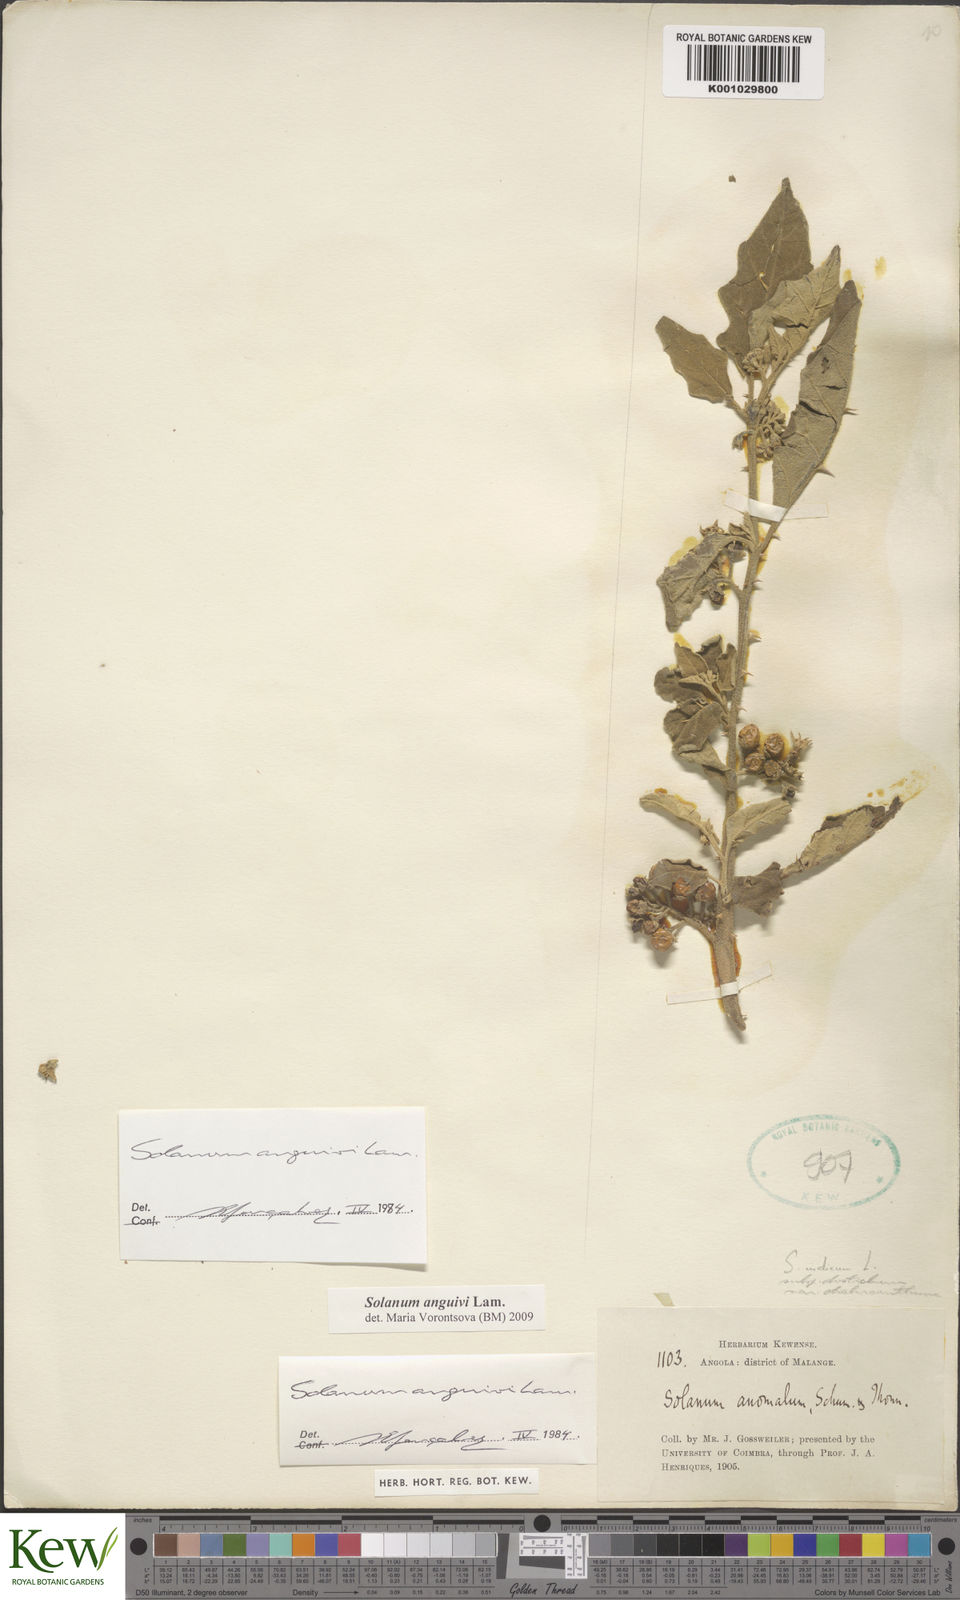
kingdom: Plantae
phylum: Tracheophyta
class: Magnoliopsida
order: Solanales
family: Solanaceae
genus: Solanum
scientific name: Solanum anguivi
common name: Forest bitterberry
